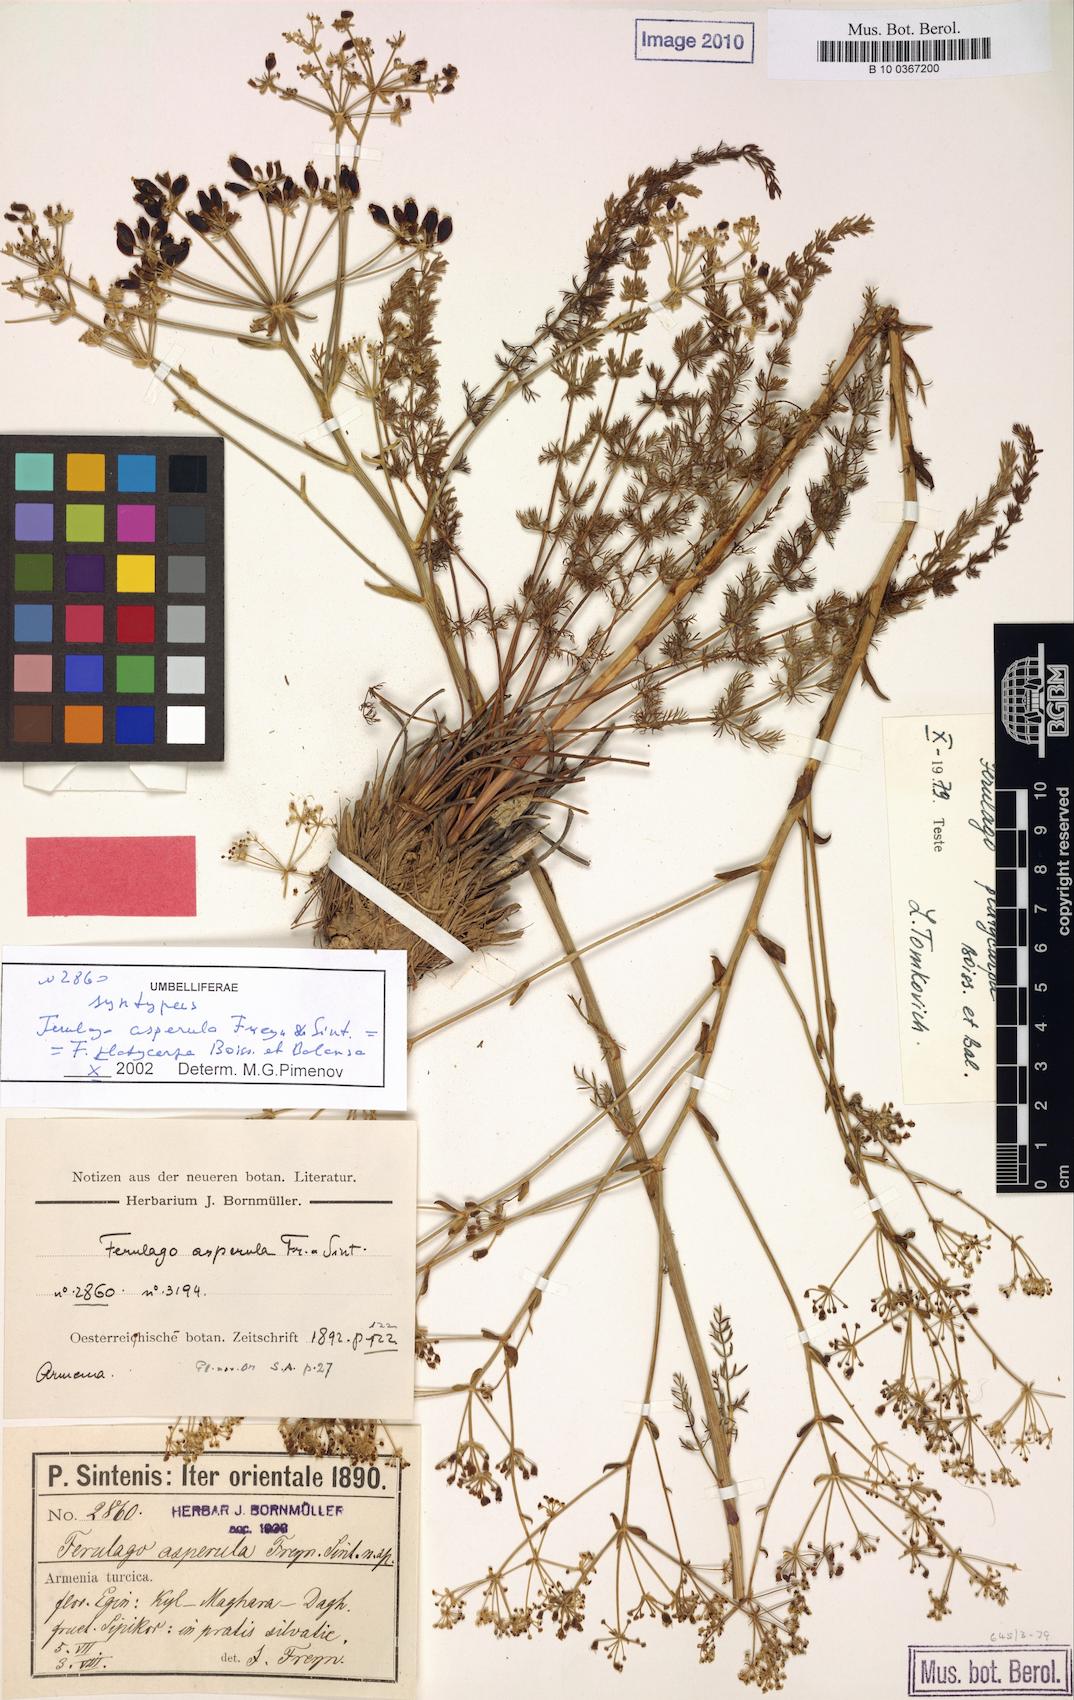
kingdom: Plantae
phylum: Tracheophyta
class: Magnoliopsida
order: Apiales
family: Apiaceae
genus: Ferulago
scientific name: Ferulago platycarpa
